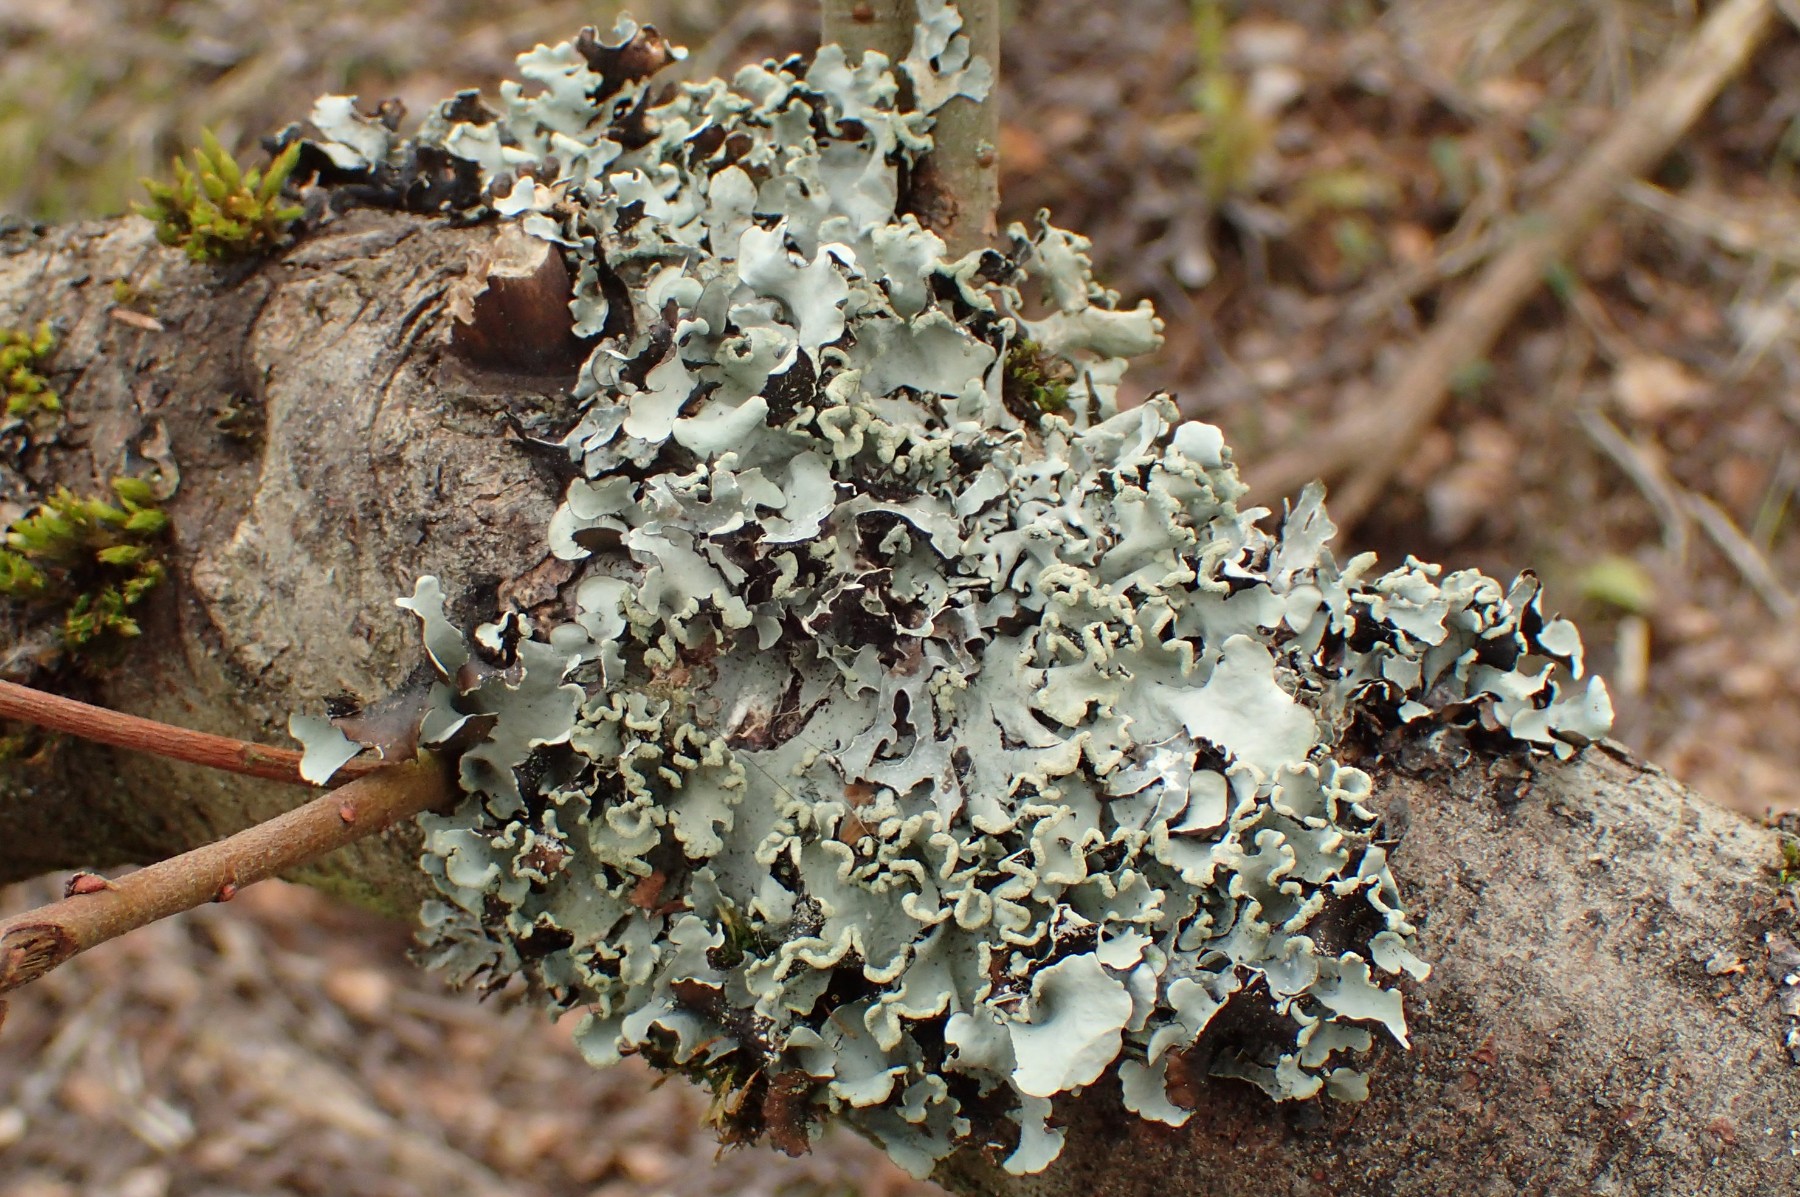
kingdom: Fungi
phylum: Ascomycota
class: Lecanoromycetes
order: Lecanorales
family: Parmeliaceae
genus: Parmotrema
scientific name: Parmotrema perlatum
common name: trådet skållav
